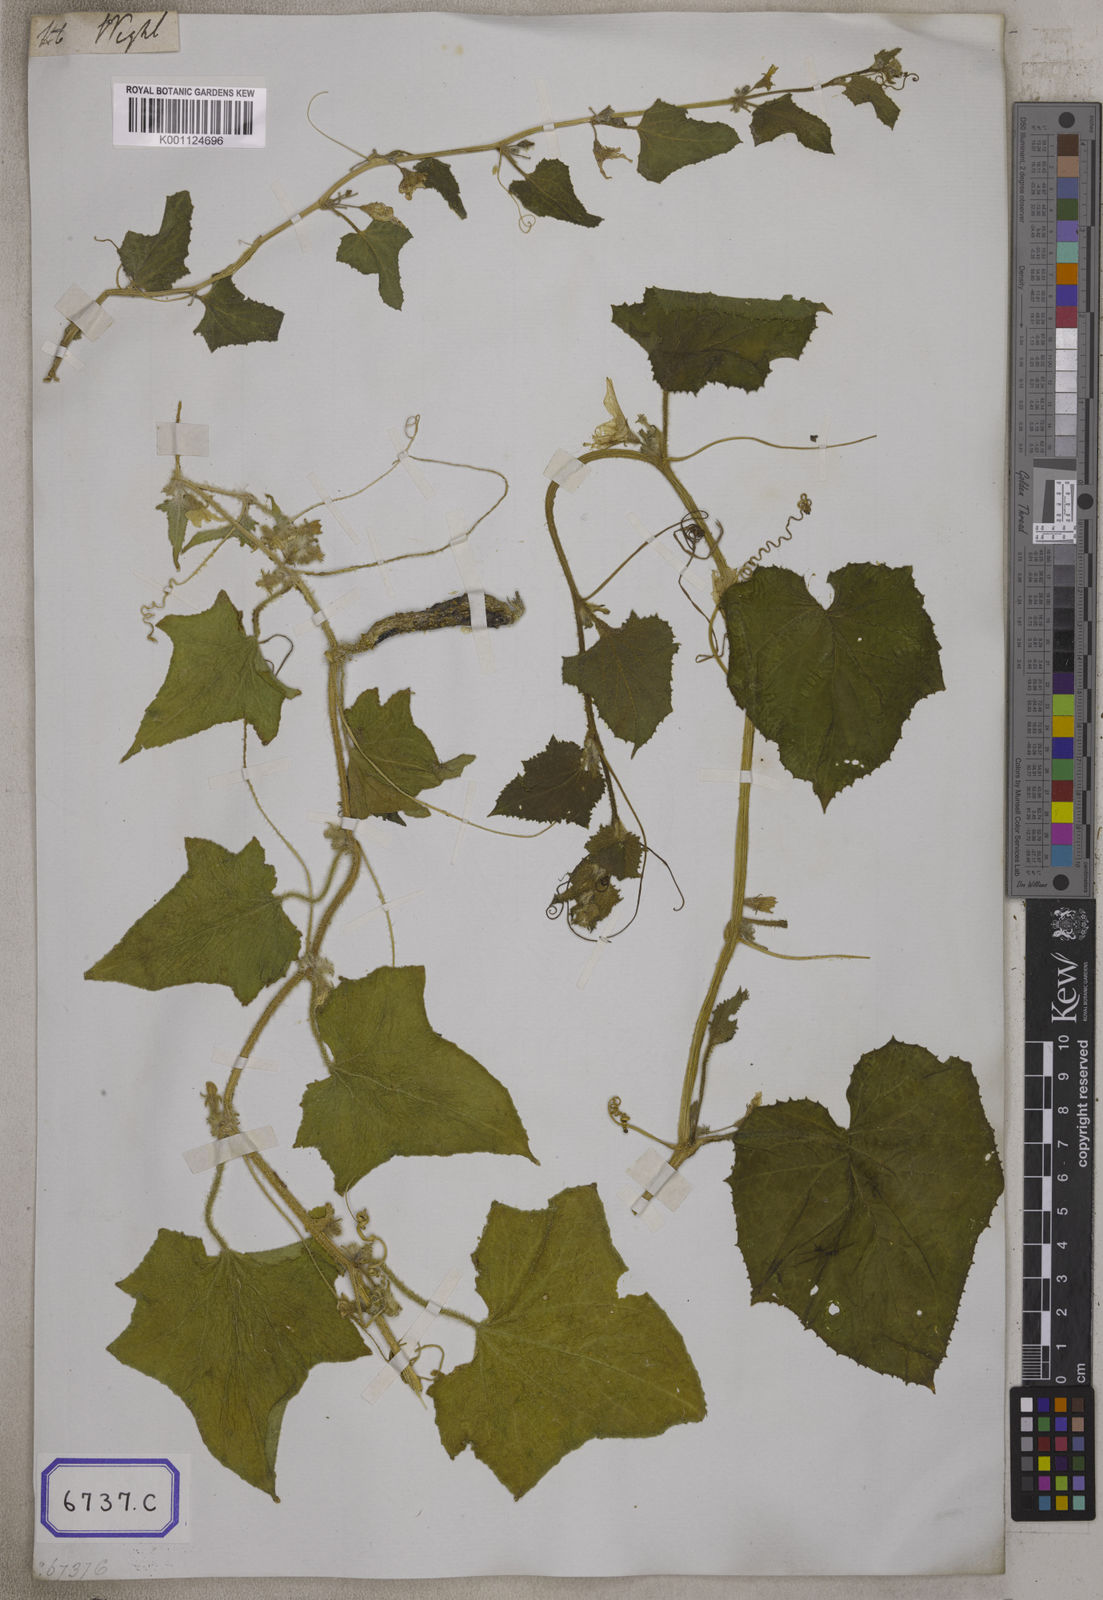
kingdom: Plantae
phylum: Tracheophyta
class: Magnoliopsida
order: Cucurbitales
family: Cucurbitaceae
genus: Cucumis
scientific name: Cucumis sativus
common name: Cucumber
